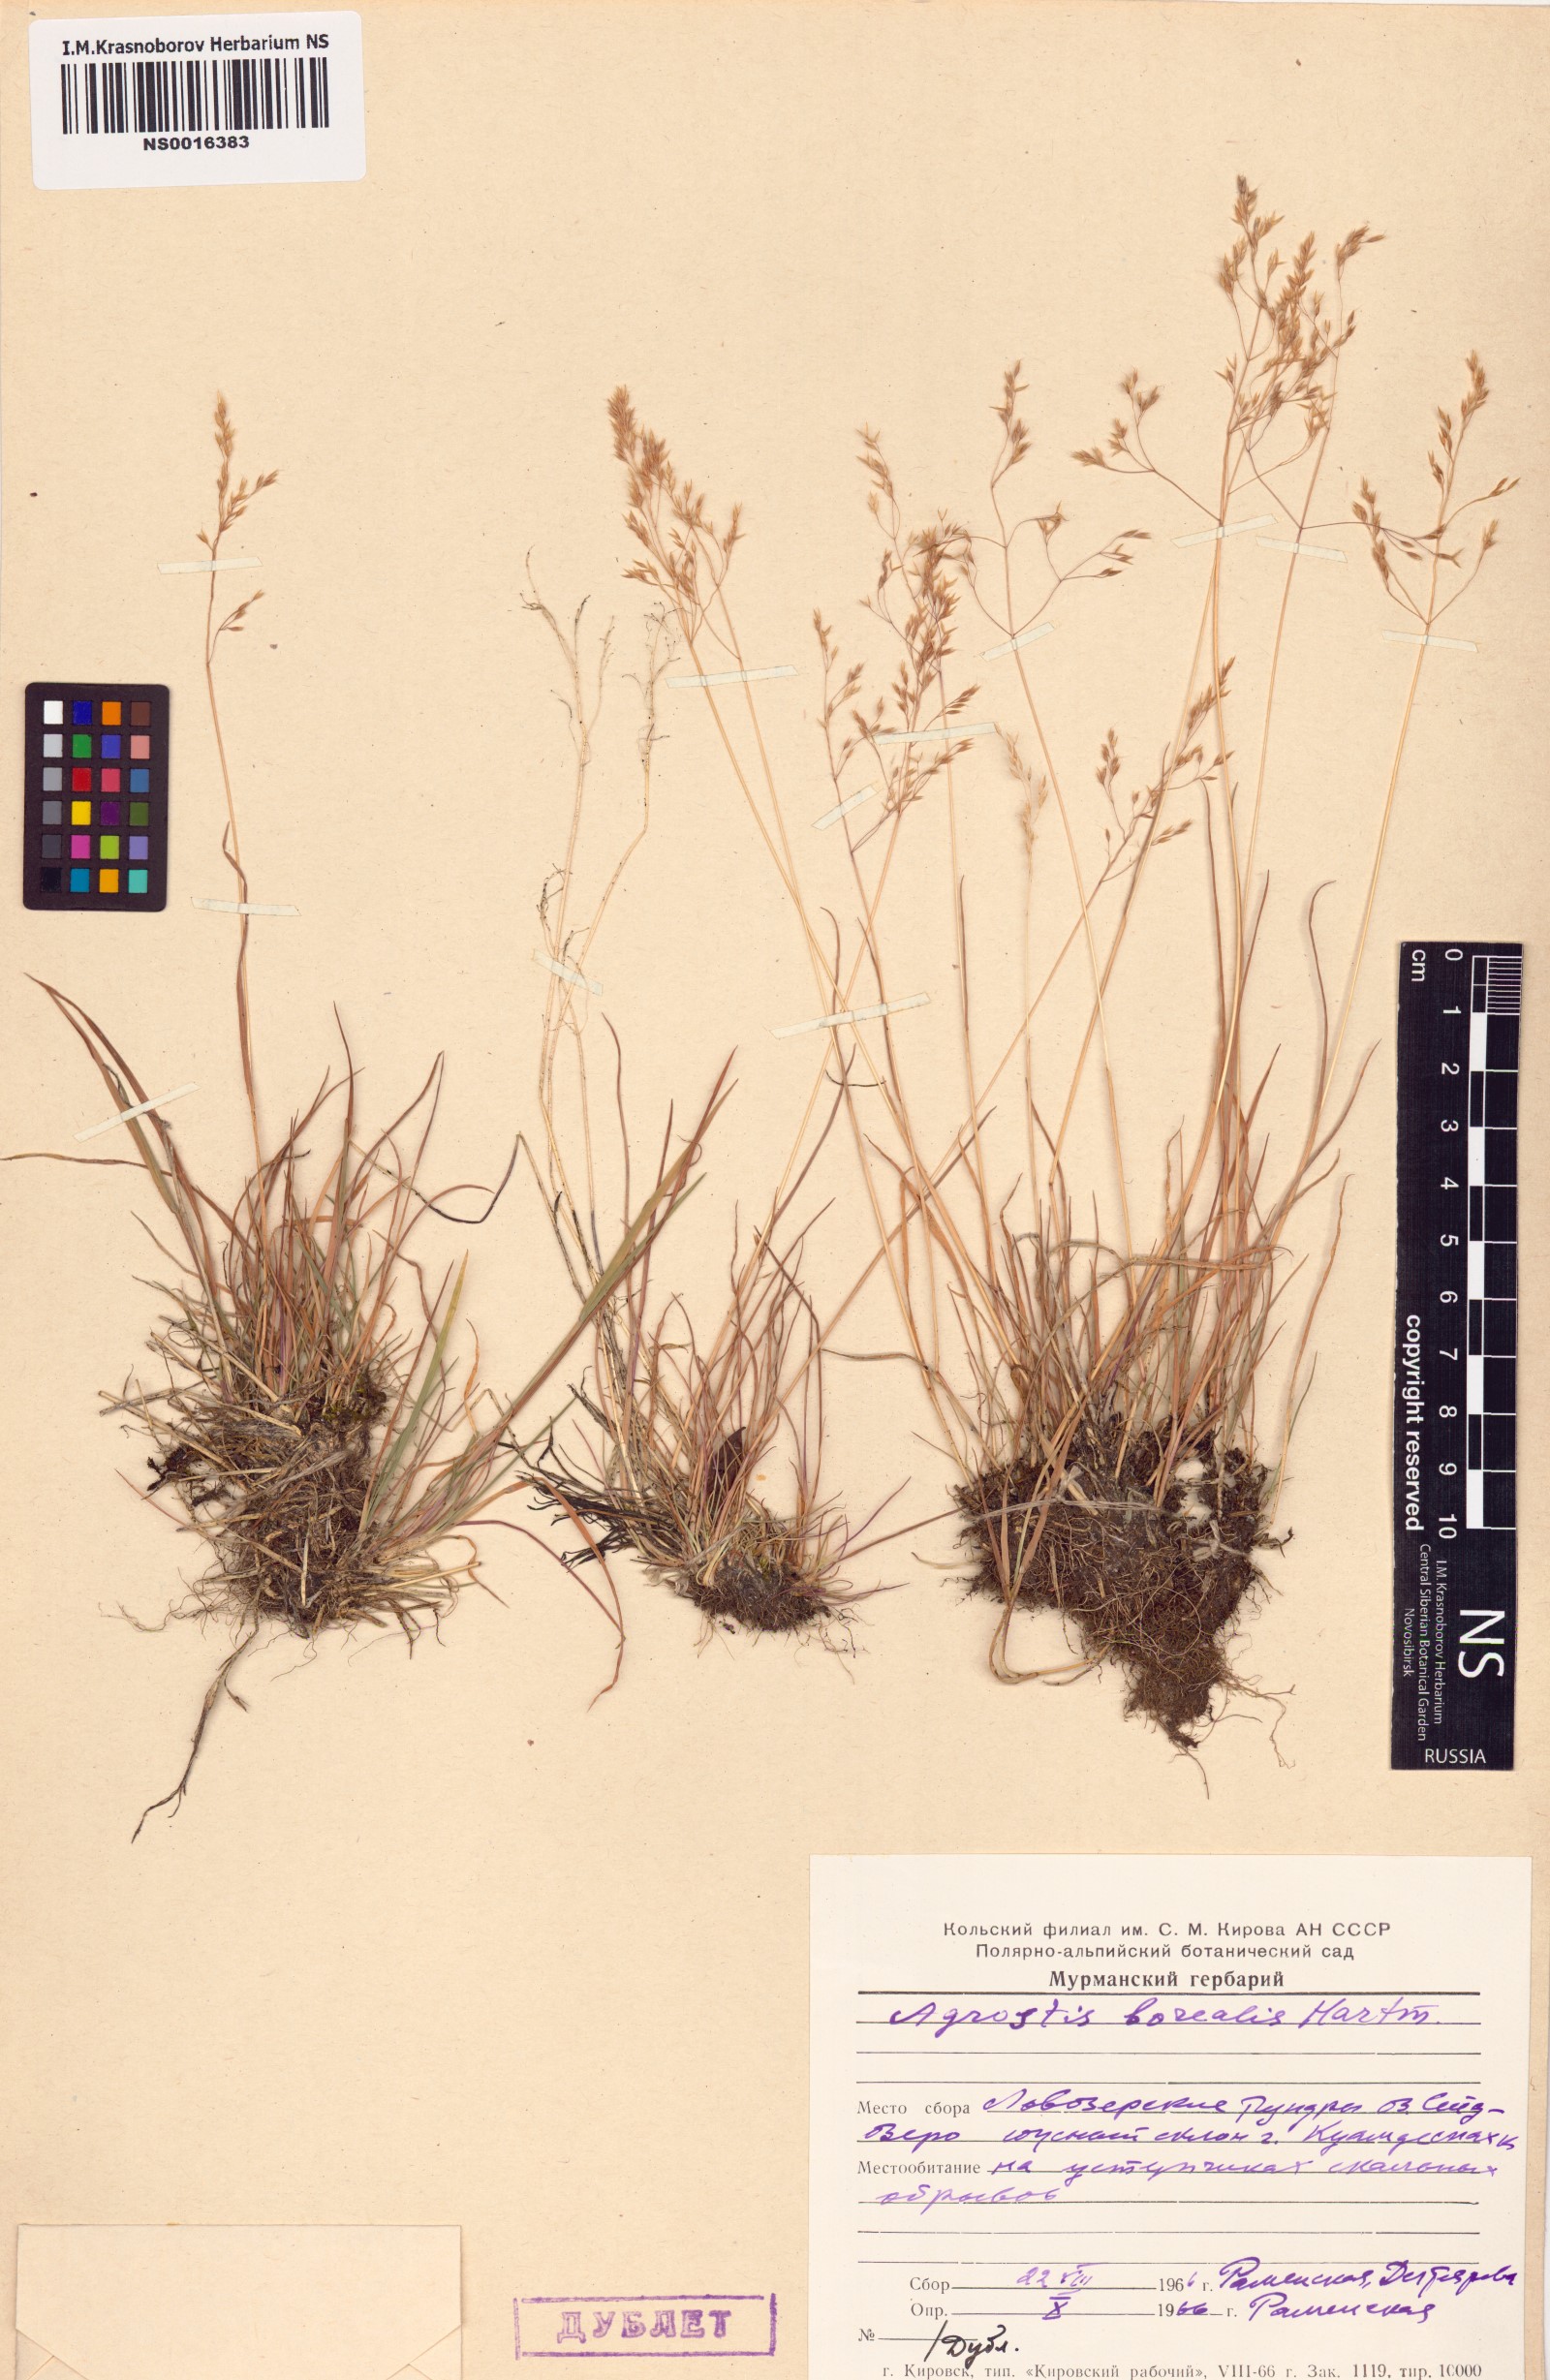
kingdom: Plantae
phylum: Tracheophyta
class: Liliopsida
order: Poales
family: Poaceae
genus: Agrostis
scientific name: Agrostis mertensii
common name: Northern bent
